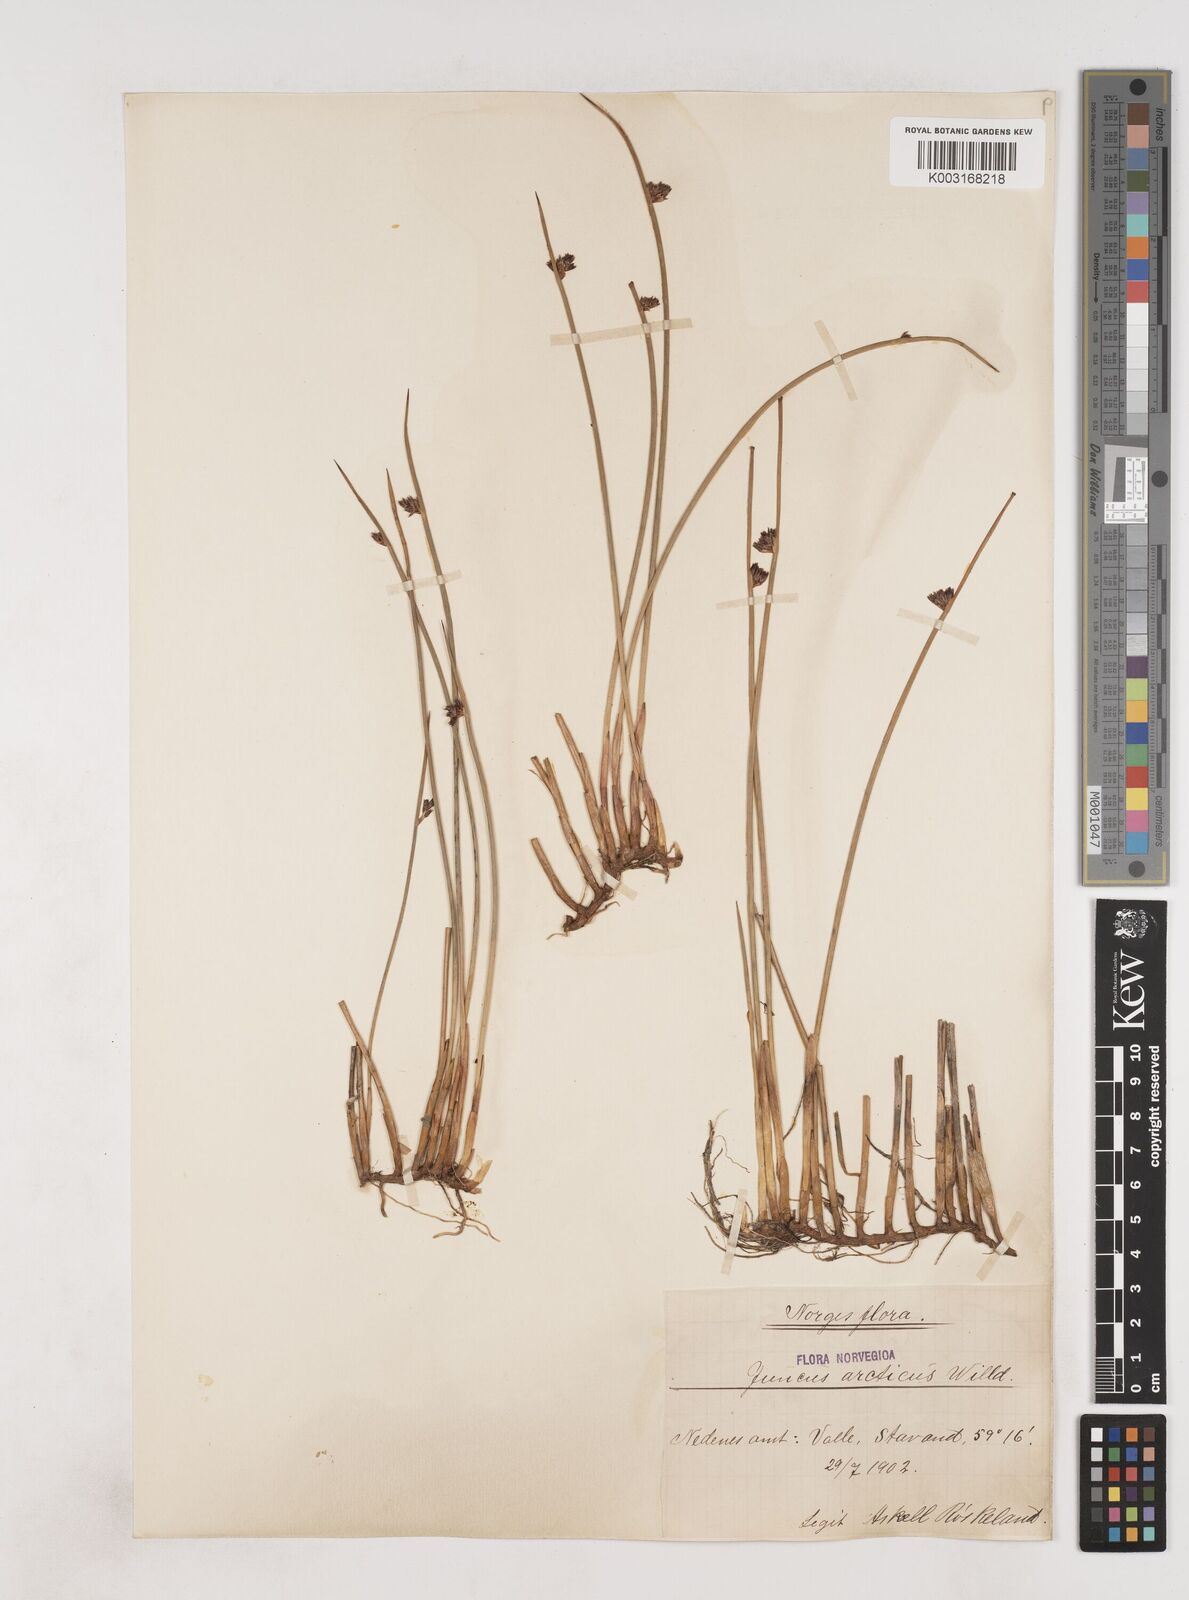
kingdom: Plantae
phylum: Tracheophyta
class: Liliopsida
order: Poales
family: Juncaceae
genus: Juncus
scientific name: Juncus arcticus
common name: Arctic rush
